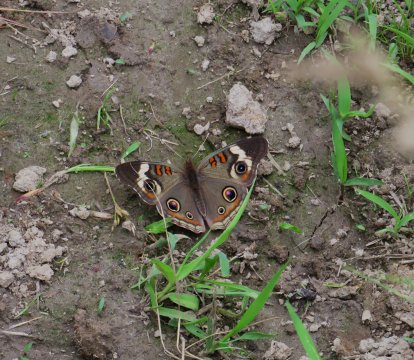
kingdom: Animalia
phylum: Arthropoda
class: Insecta
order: Lepidoptera
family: Nymphalidae
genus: Junonia
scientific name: Junonia coenia
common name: Common Buckeye
